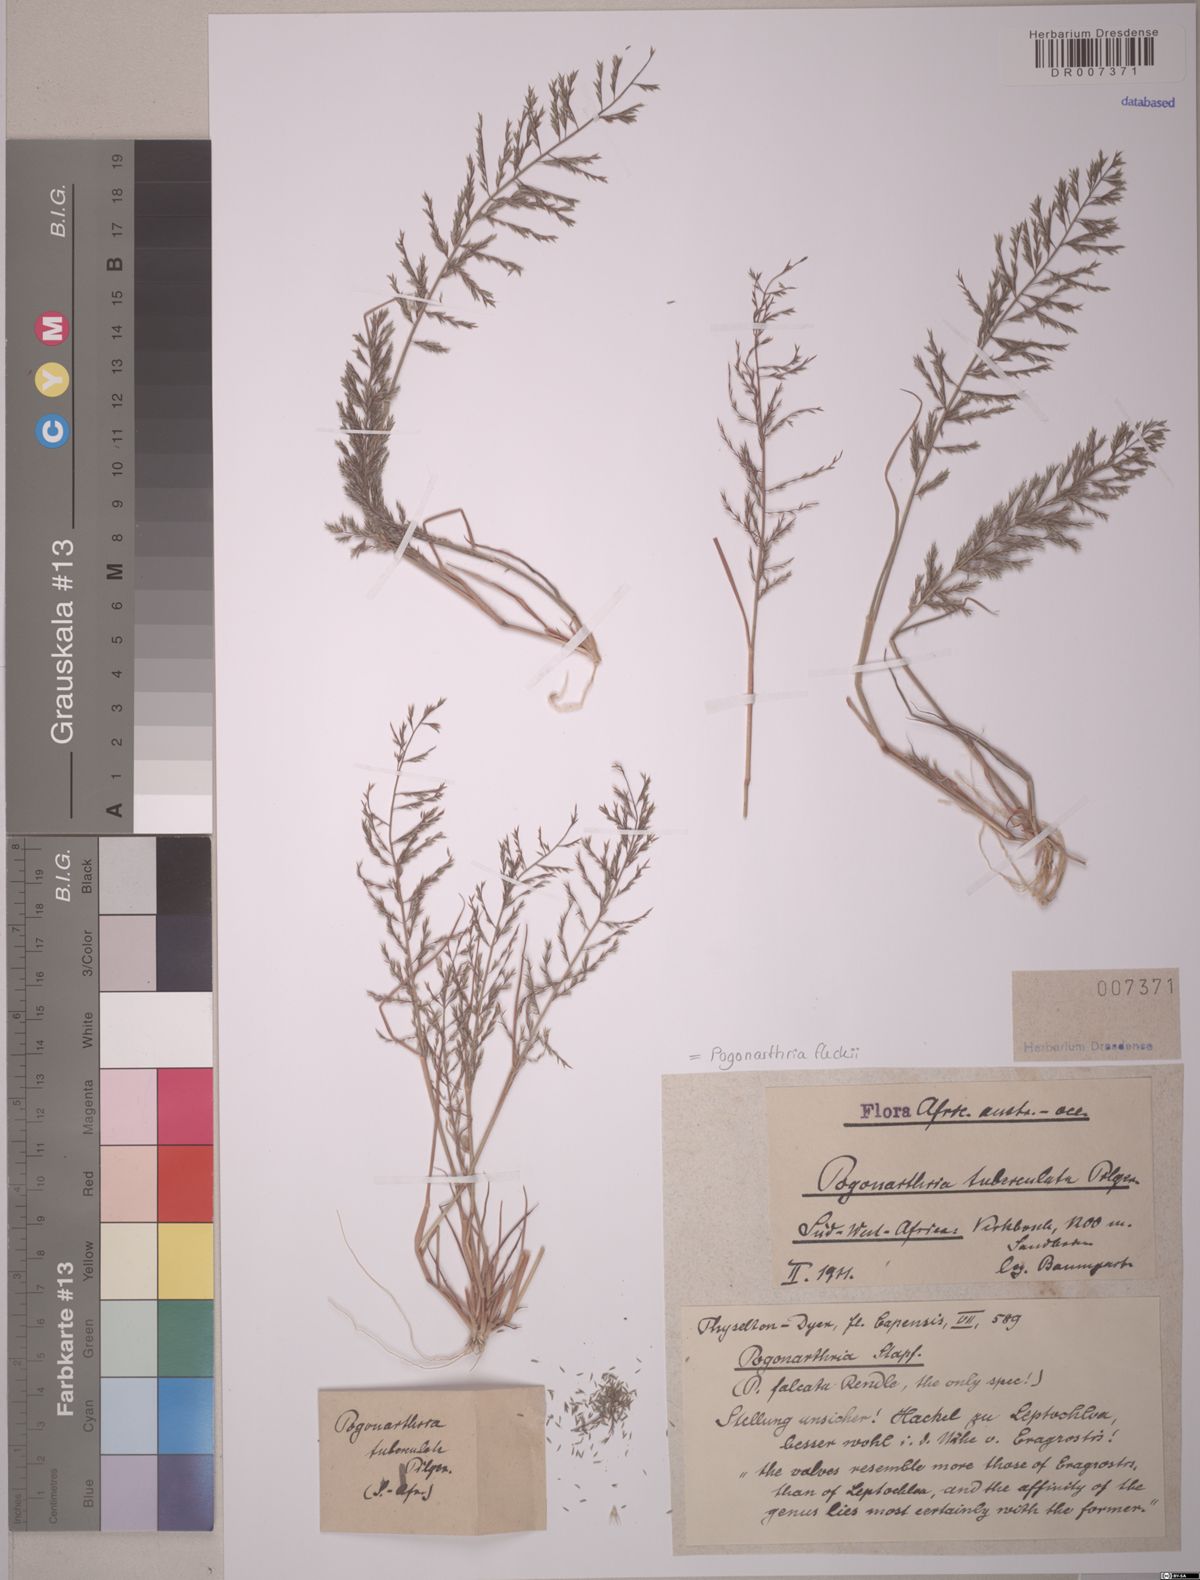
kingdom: Plantae
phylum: Tracheophyta
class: Liliopsida
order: Poales
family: Poaceae
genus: Pogonarthria
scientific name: Pogonarthria fleckii
